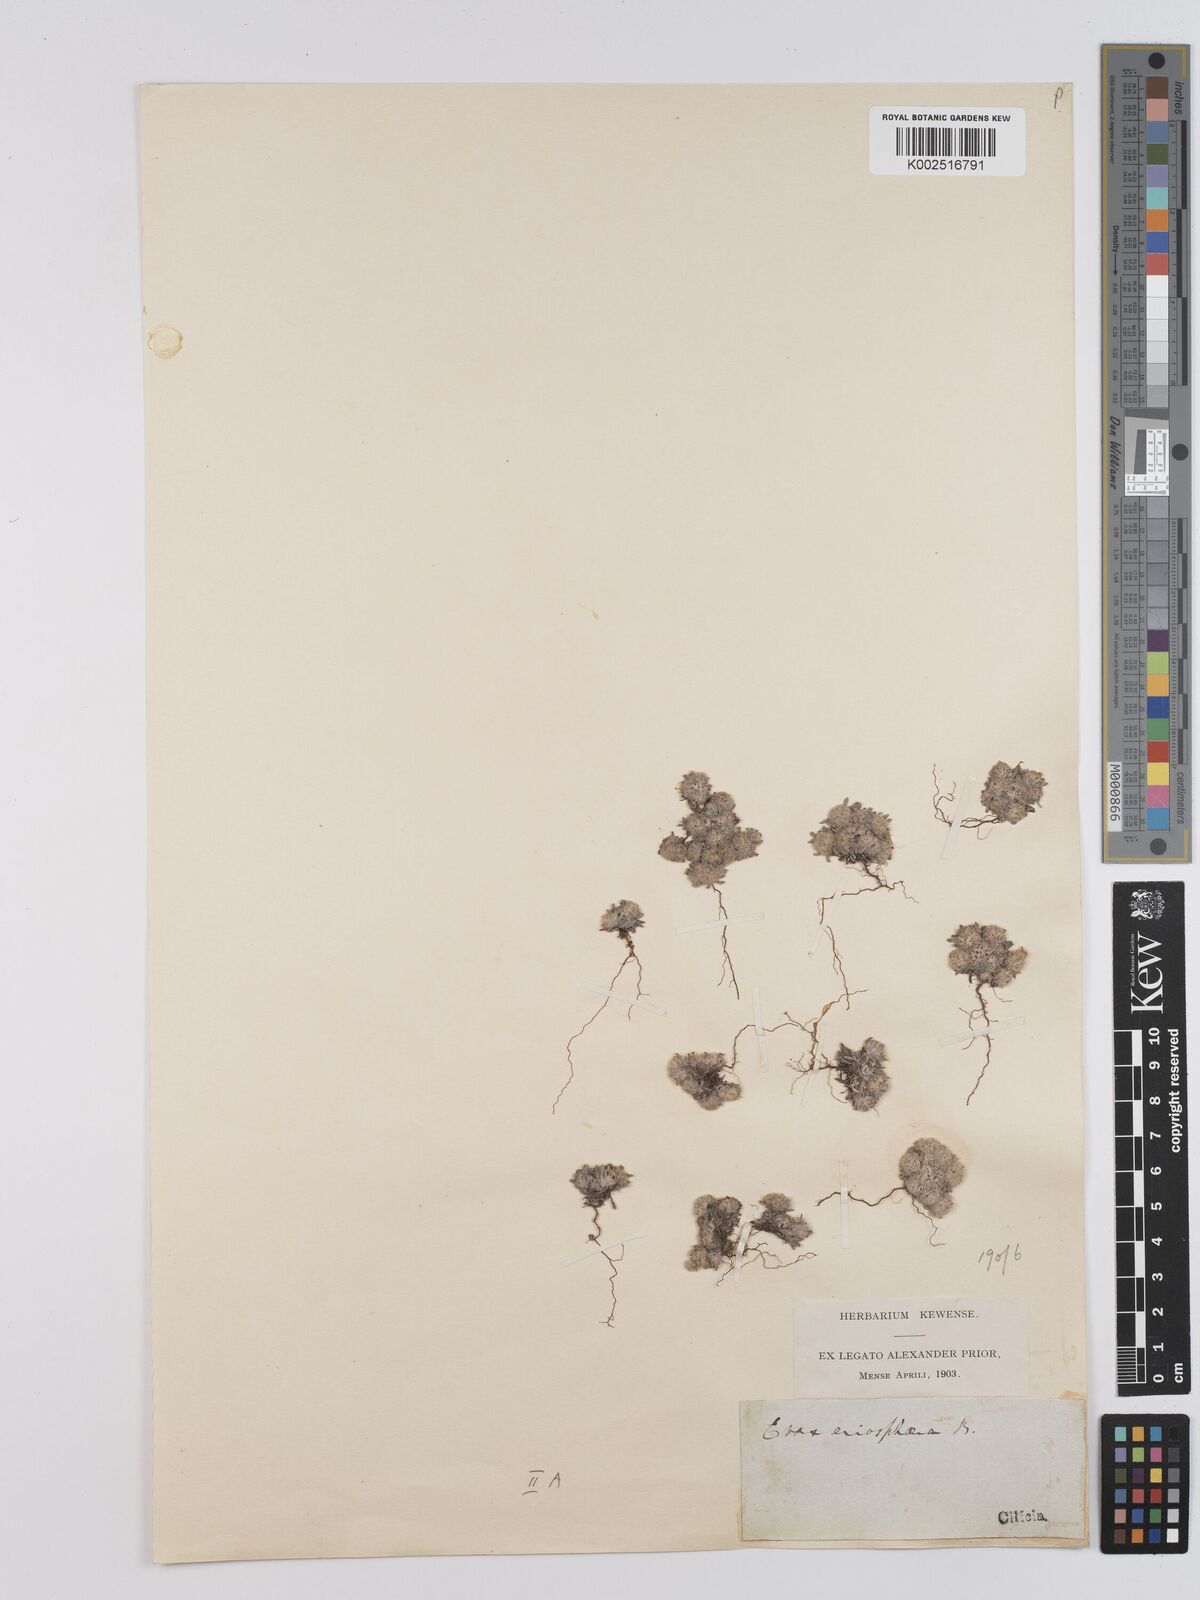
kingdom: Plantae
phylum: Tracheophyta
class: Magnoliopsida
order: Asterales
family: Asteraceae
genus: Filago
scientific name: Filago eriosphaera
